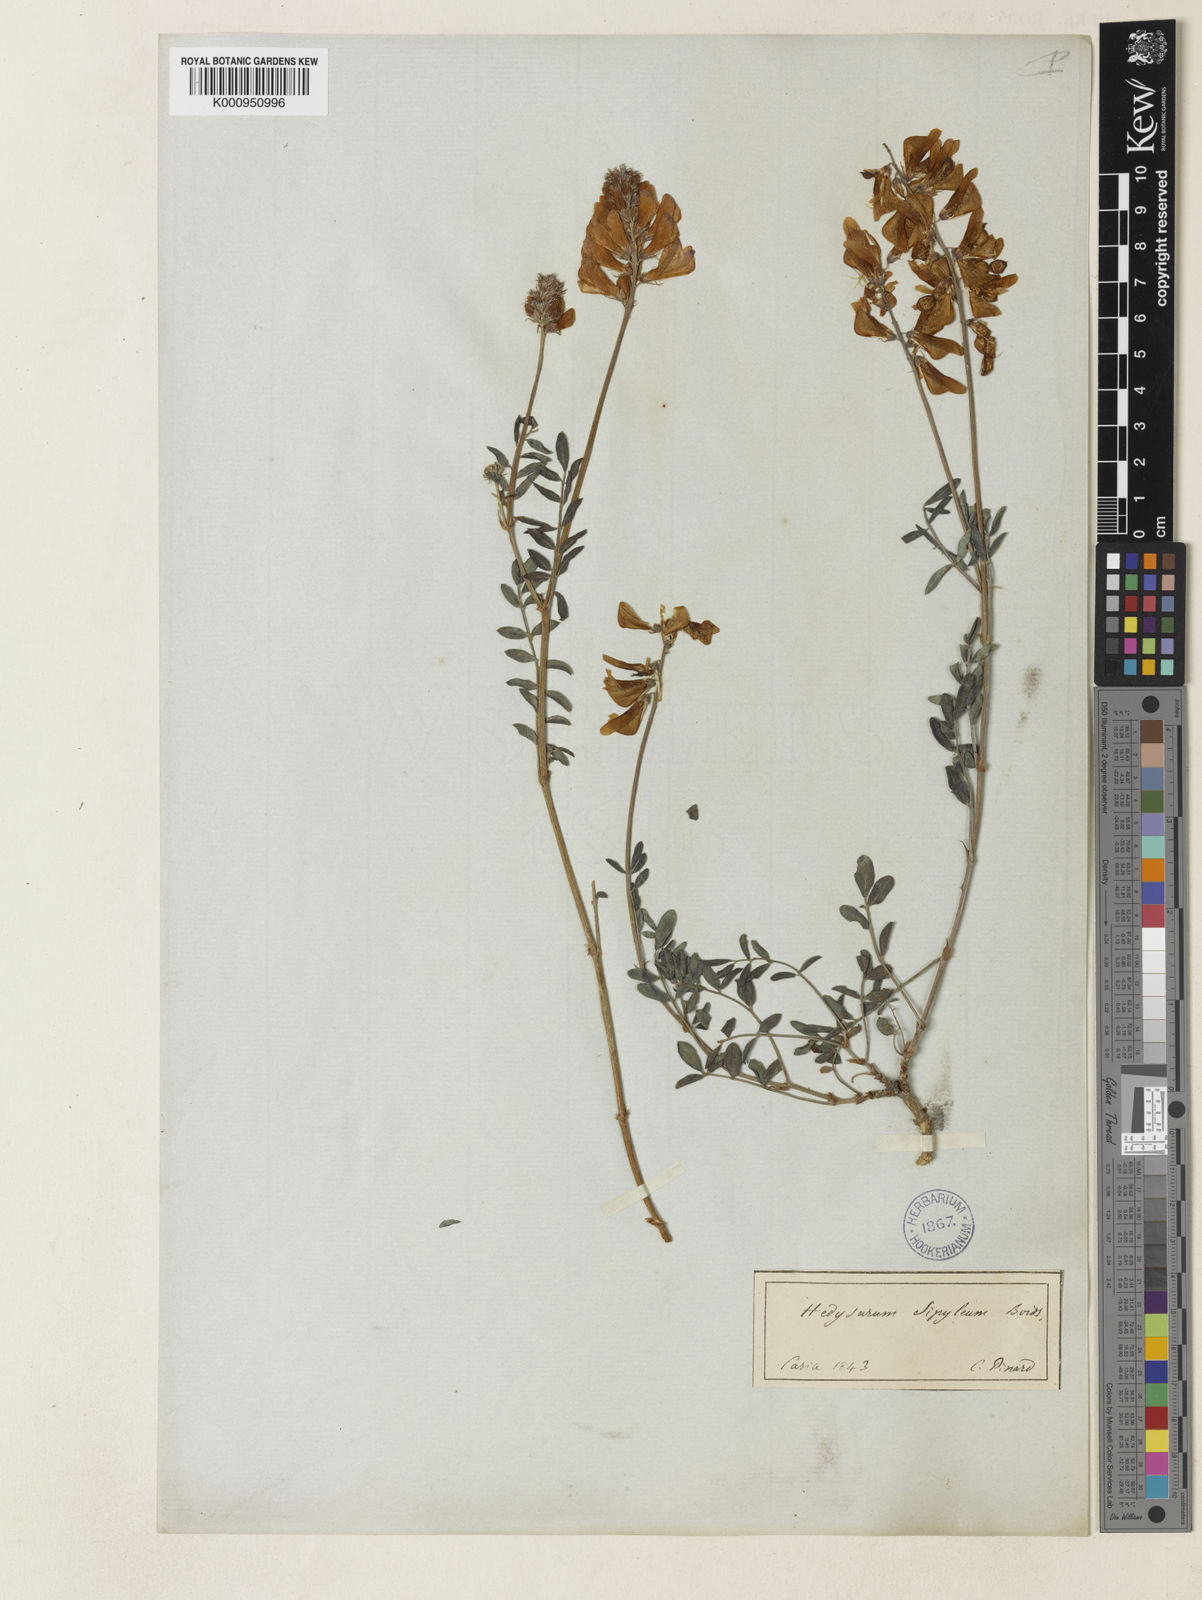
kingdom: Plantae
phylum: Tracheophyta
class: Magnoliopsida
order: Fabales
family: Fabaceae
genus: Hedysarum
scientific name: Hedysarum varium
